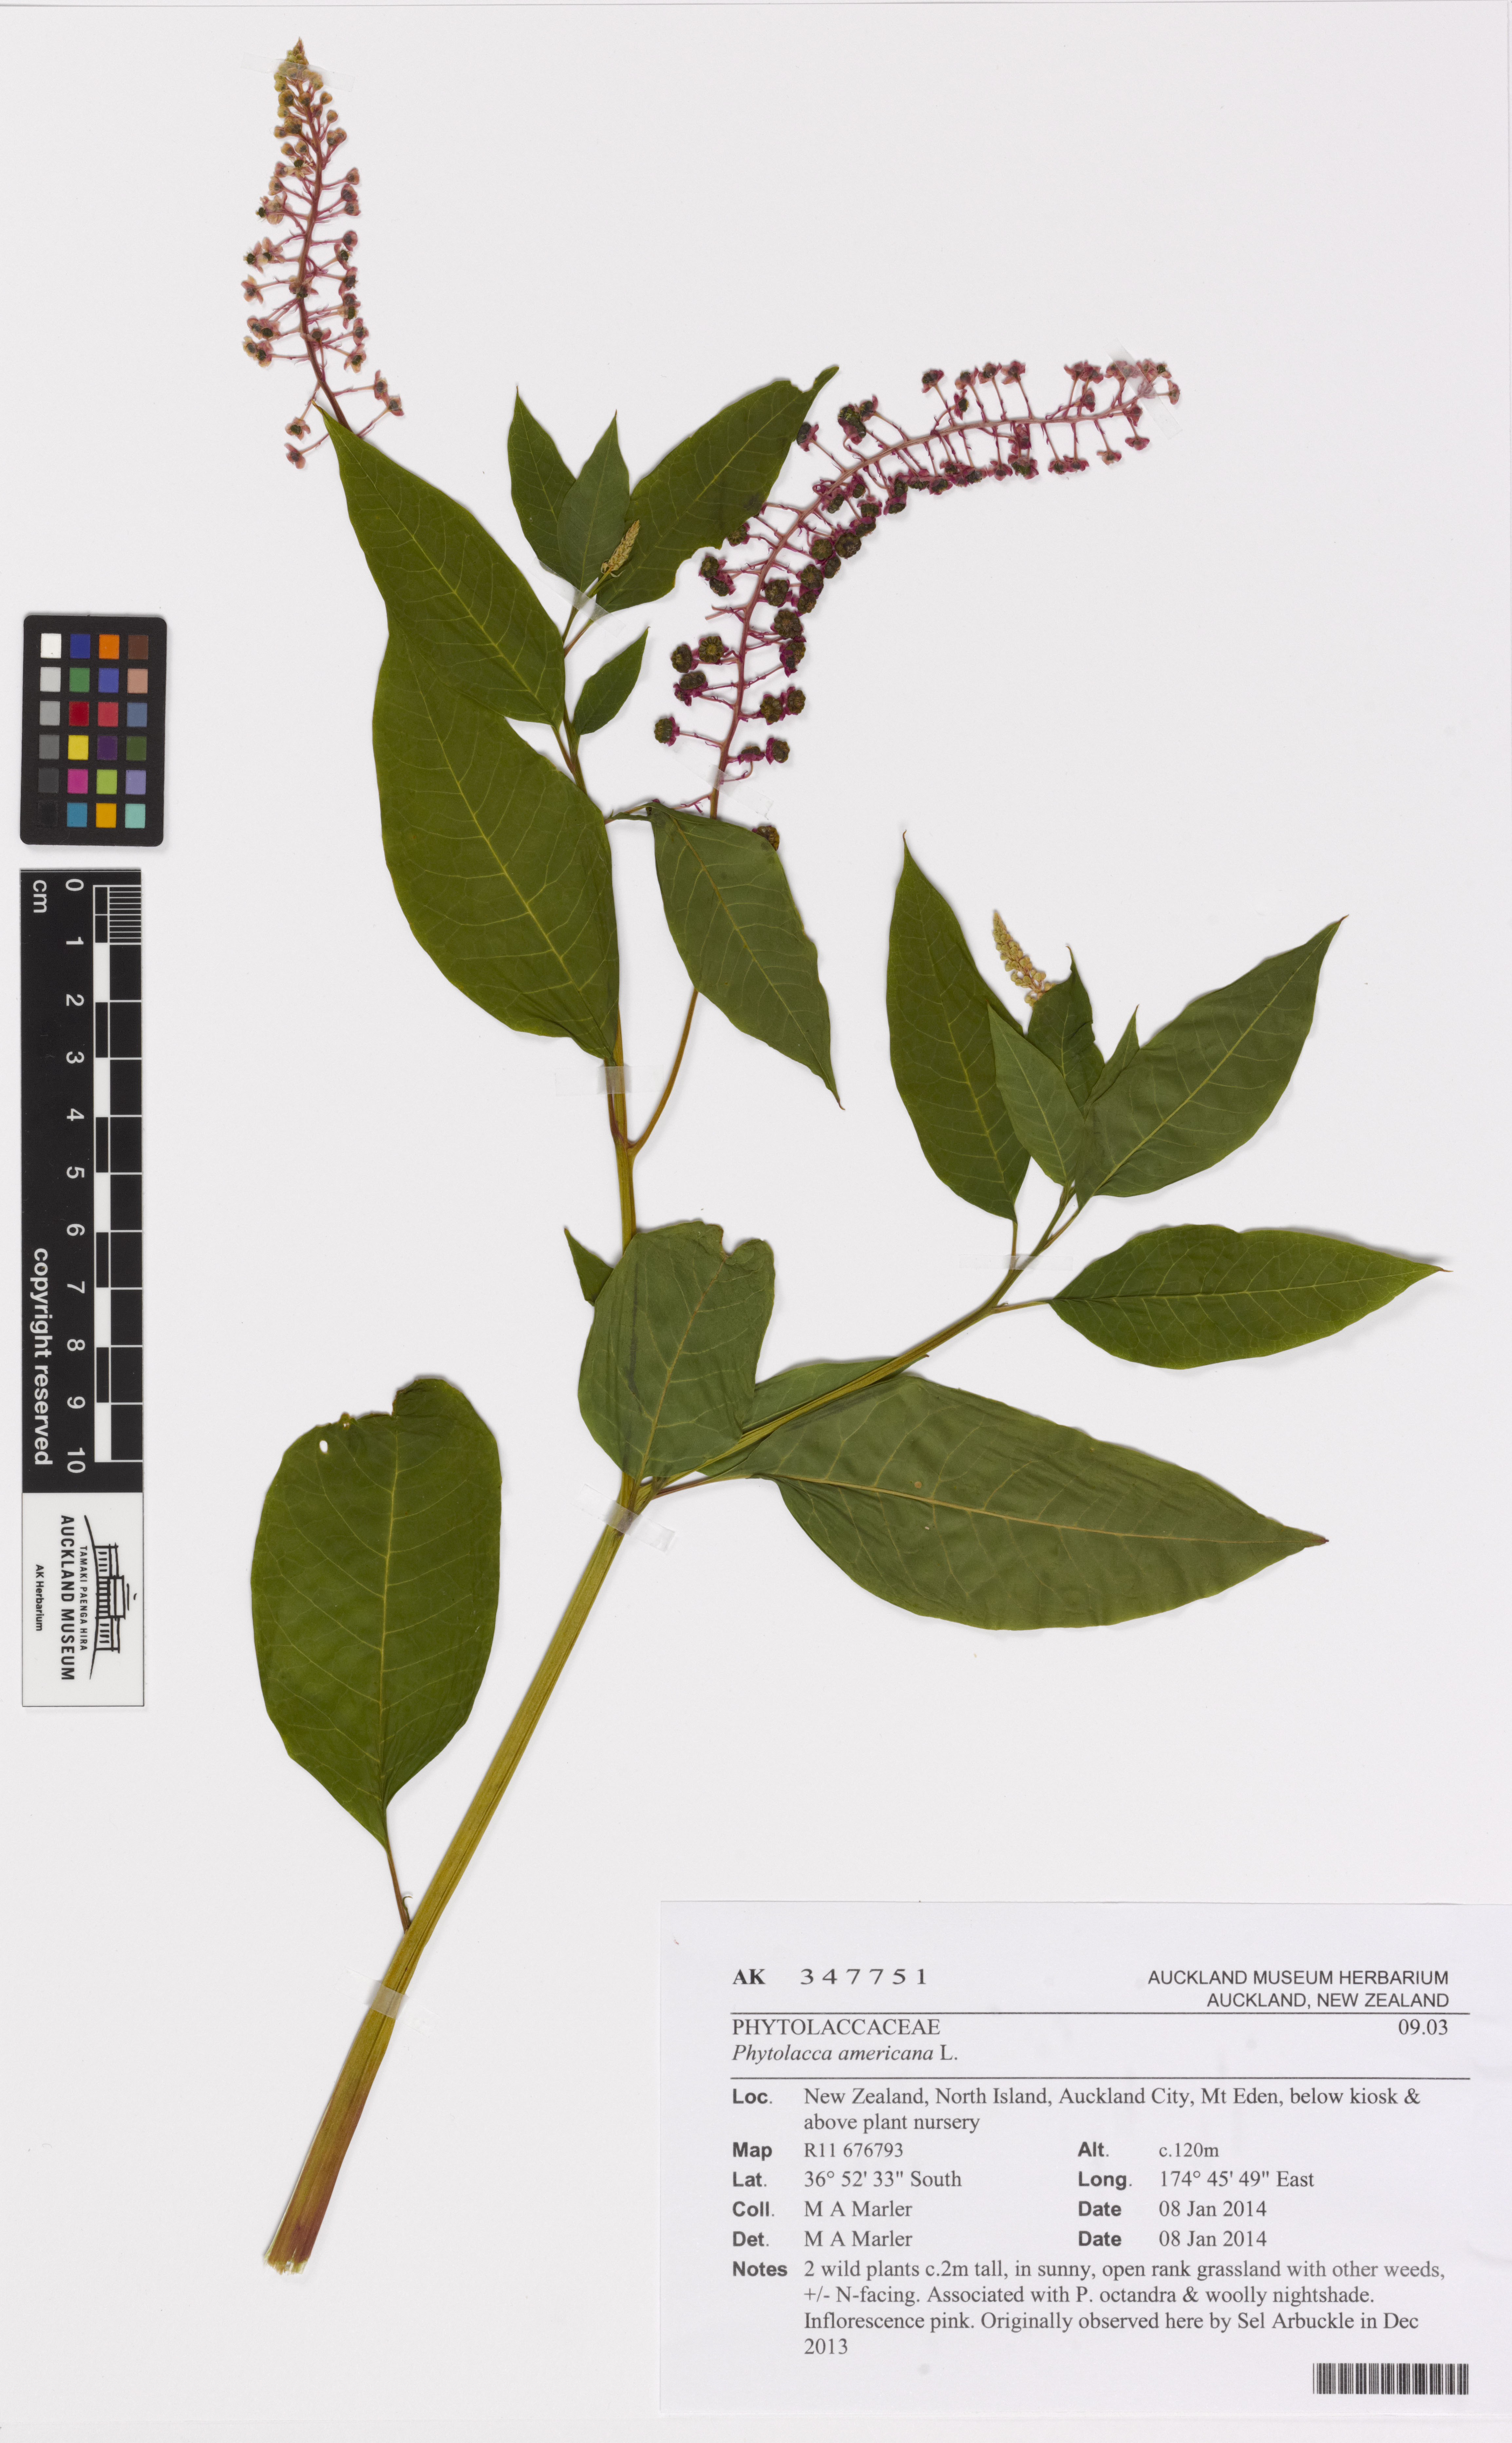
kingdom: Plantae
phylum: Tracheophyta
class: Magnoliopsida
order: Caryophyllales
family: Phytolaccaceae
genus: Phytolacca
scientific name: Phytolacca americana
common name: American pokeweed
